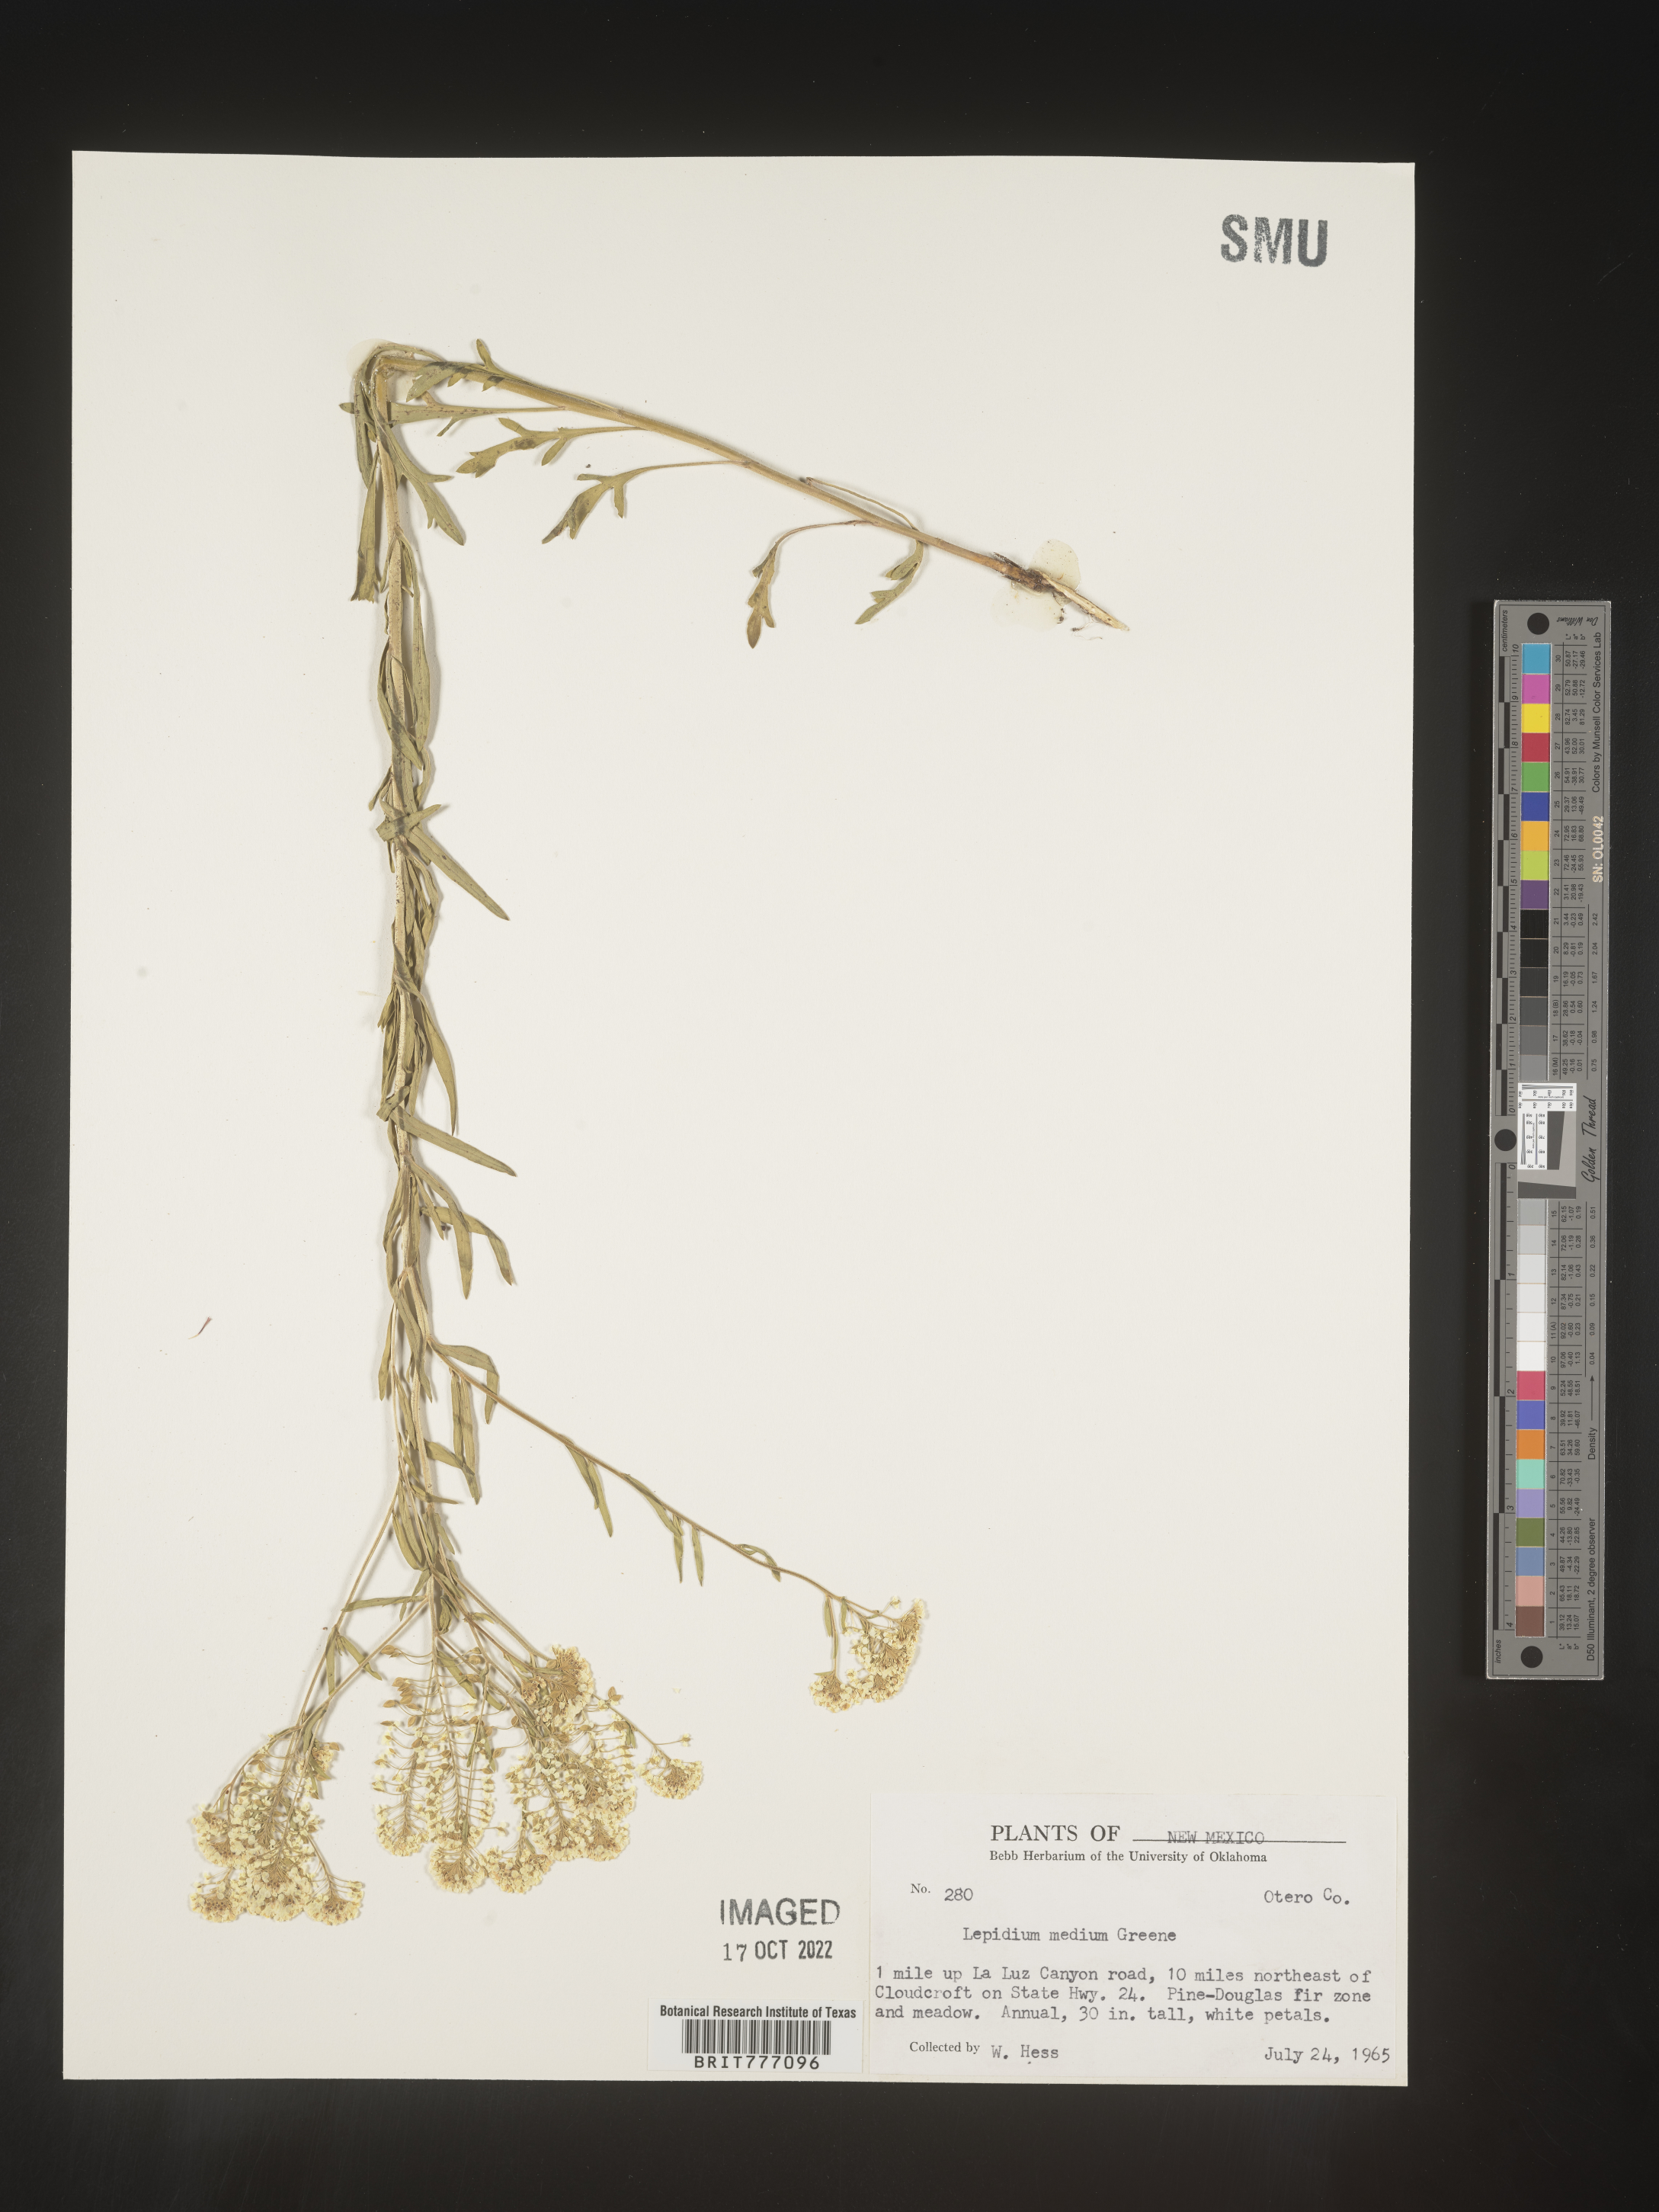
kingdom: Plantae
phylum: Tracheophyta
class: Magnoliopsida
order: Brassicales
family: Brassicaceae
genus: Lepidium
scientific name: Lepidium
